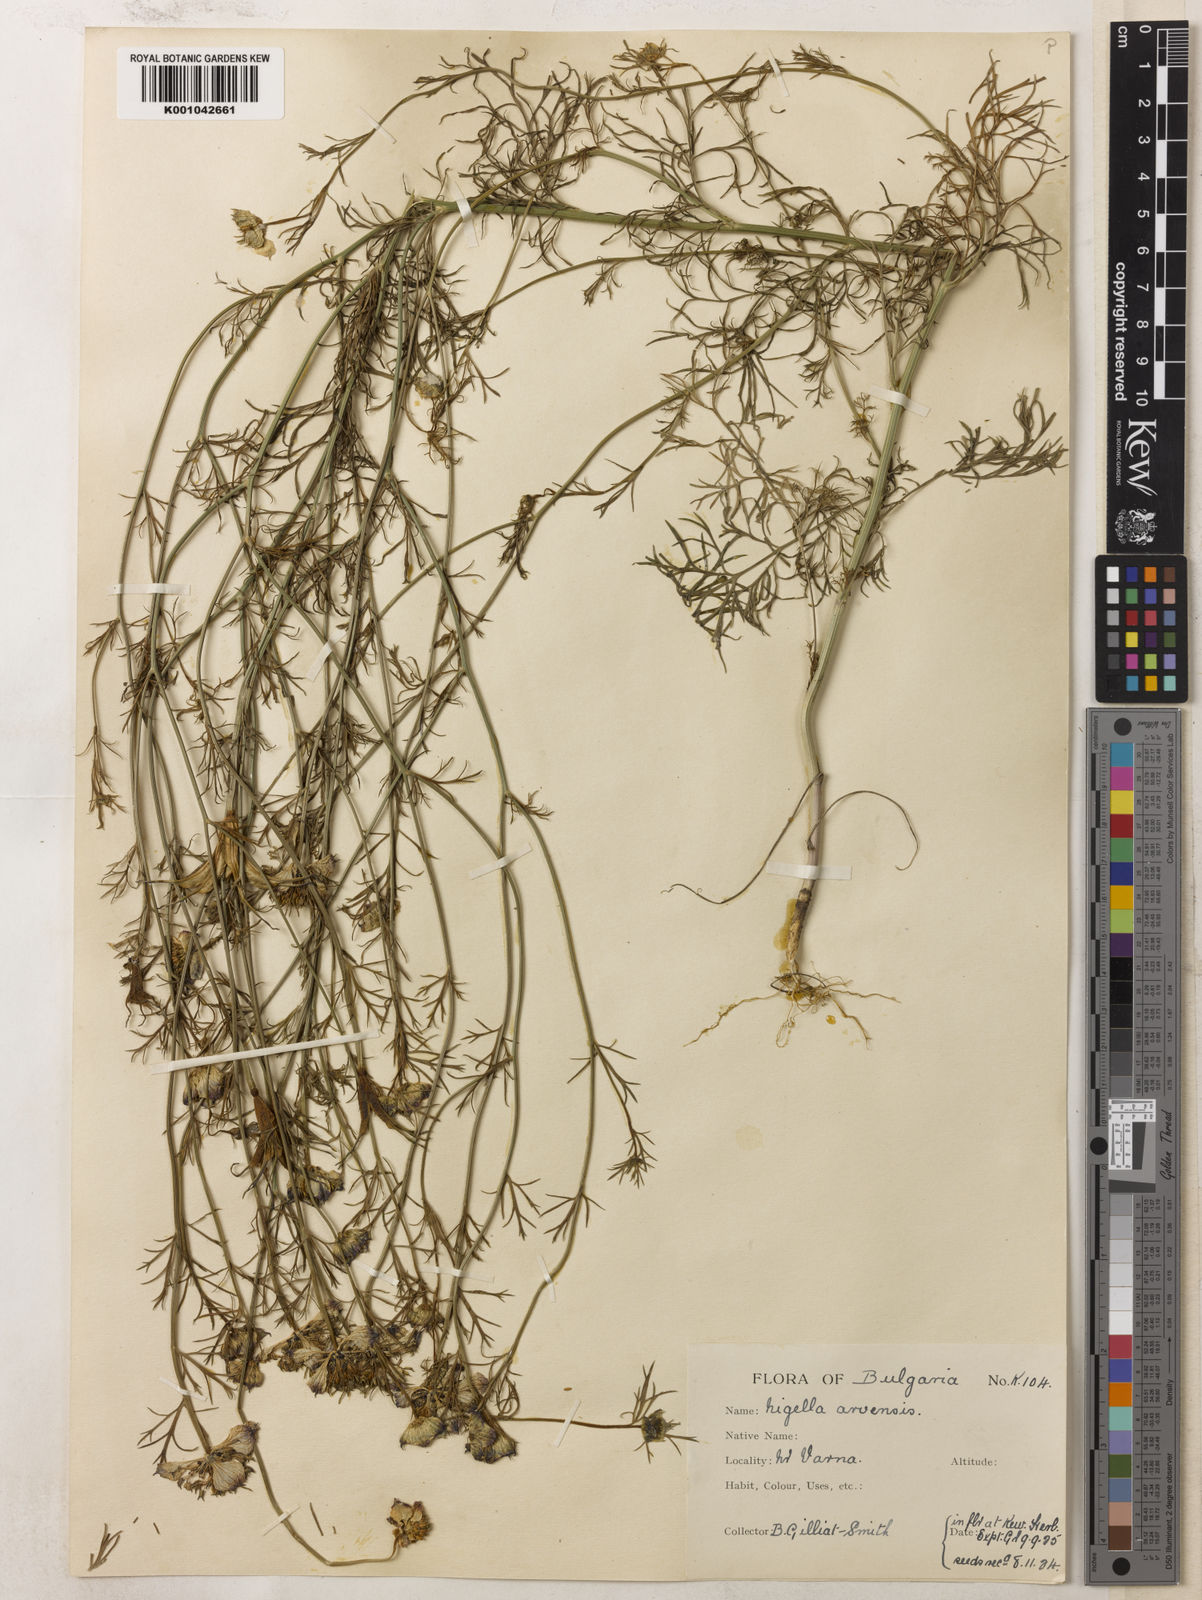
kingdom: Plantae
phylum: Tracheophyta
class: Magnoliopsida
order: Ranunculales
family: Ranunculaceae
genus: Nigella
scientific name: Nigella arvensis
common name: Wild fennel-flower
